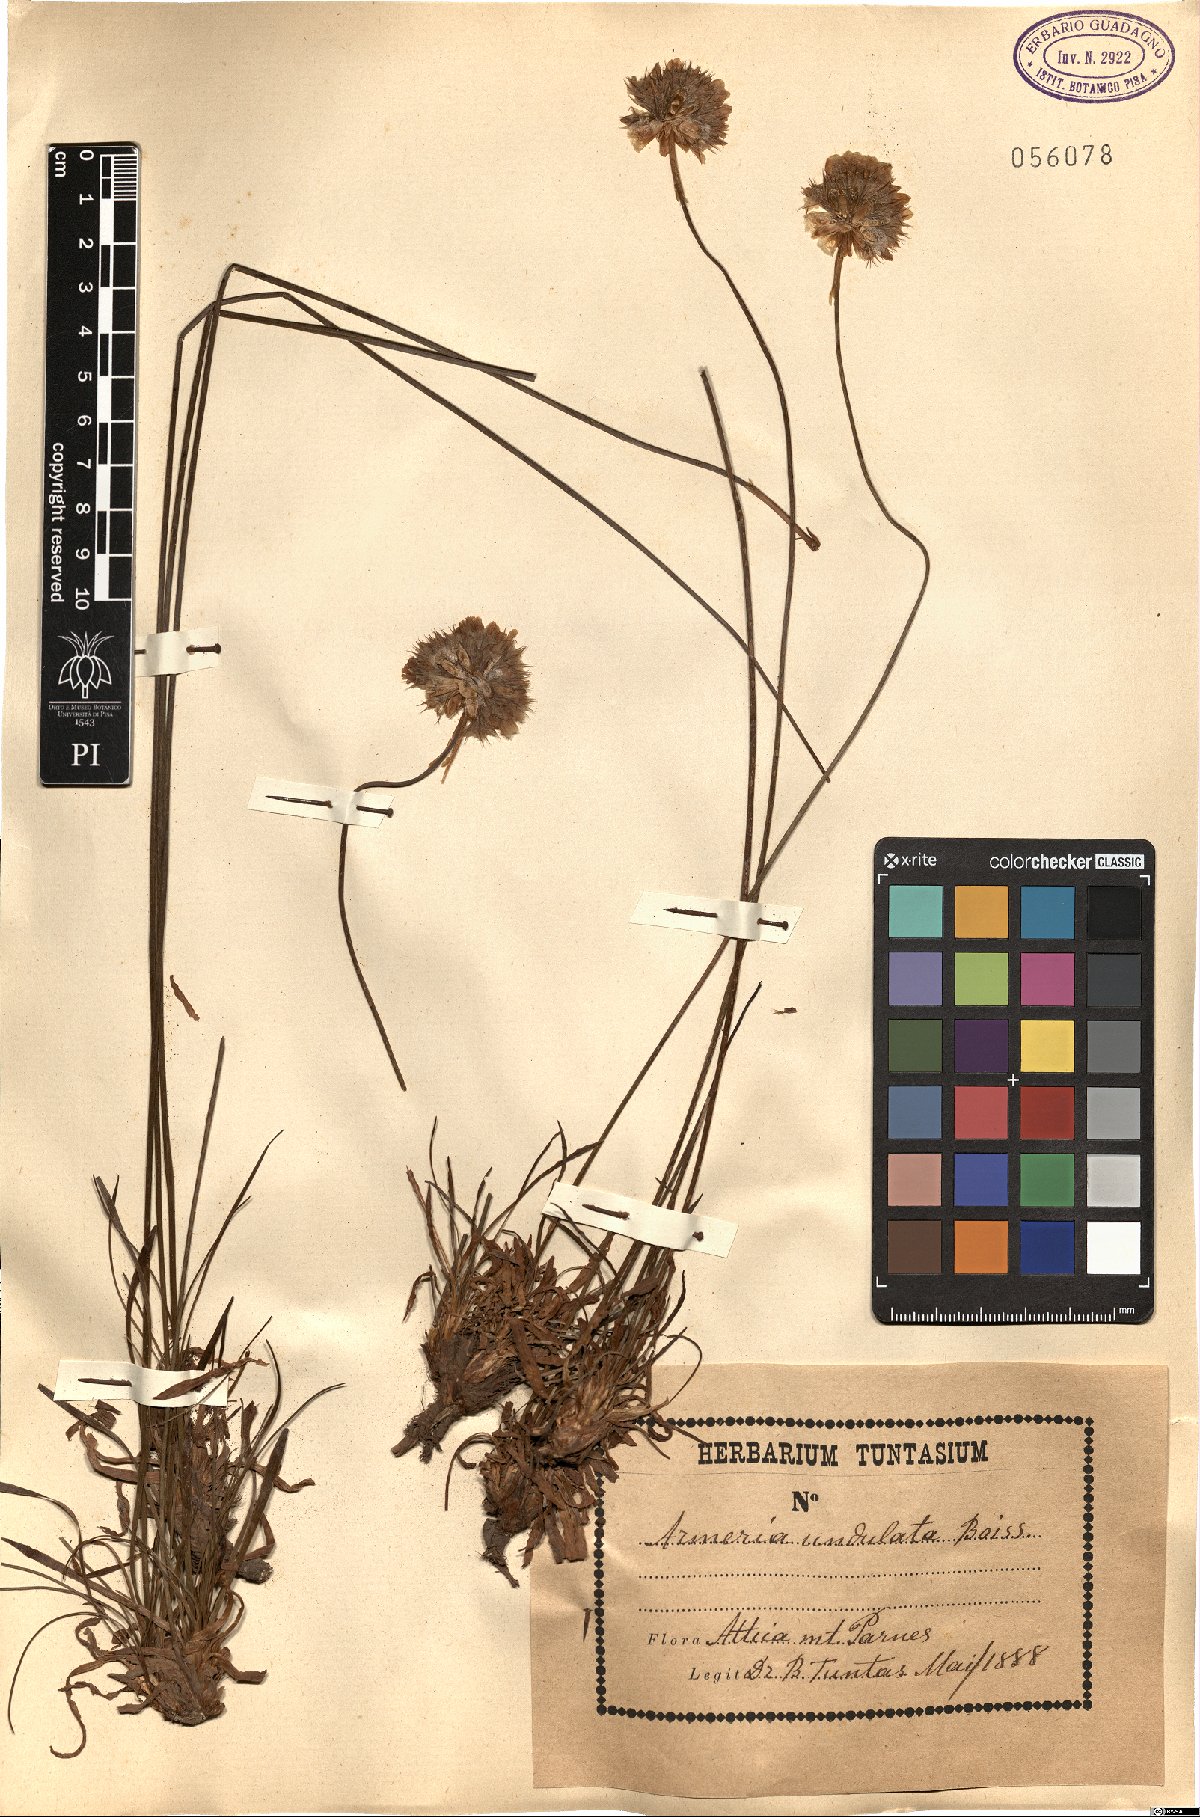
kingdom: Plantae
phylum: Tracheophyta
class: Magnoliopsida
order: Caryophyllales
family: Plumbaginaceae
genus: Armeria
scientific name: Armeria undulata
